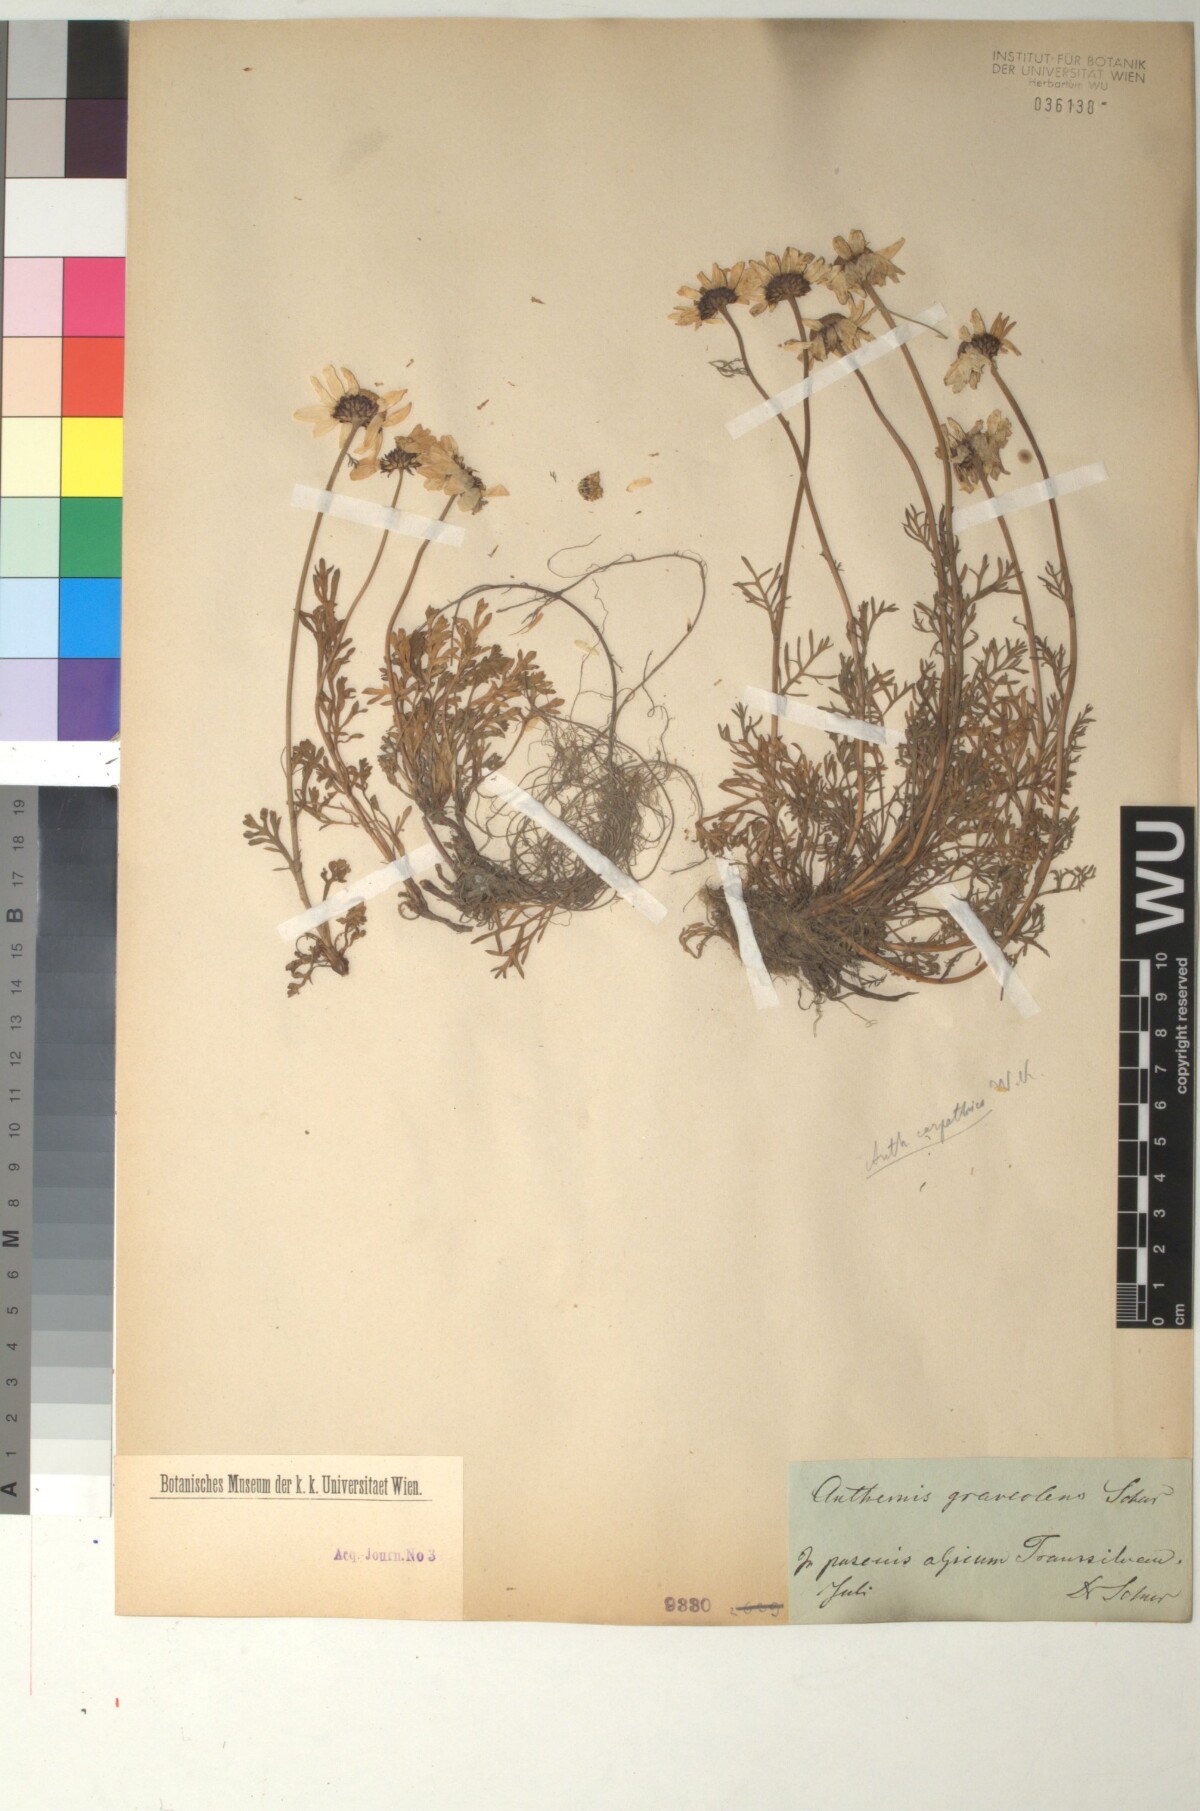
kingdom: Plantae
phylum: Tracheophyta
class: Magnoliopsida
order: Asterales
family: Asteraceae
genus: Anthemis
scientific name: Anthemis cretica
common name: Mountain dog-daisy
